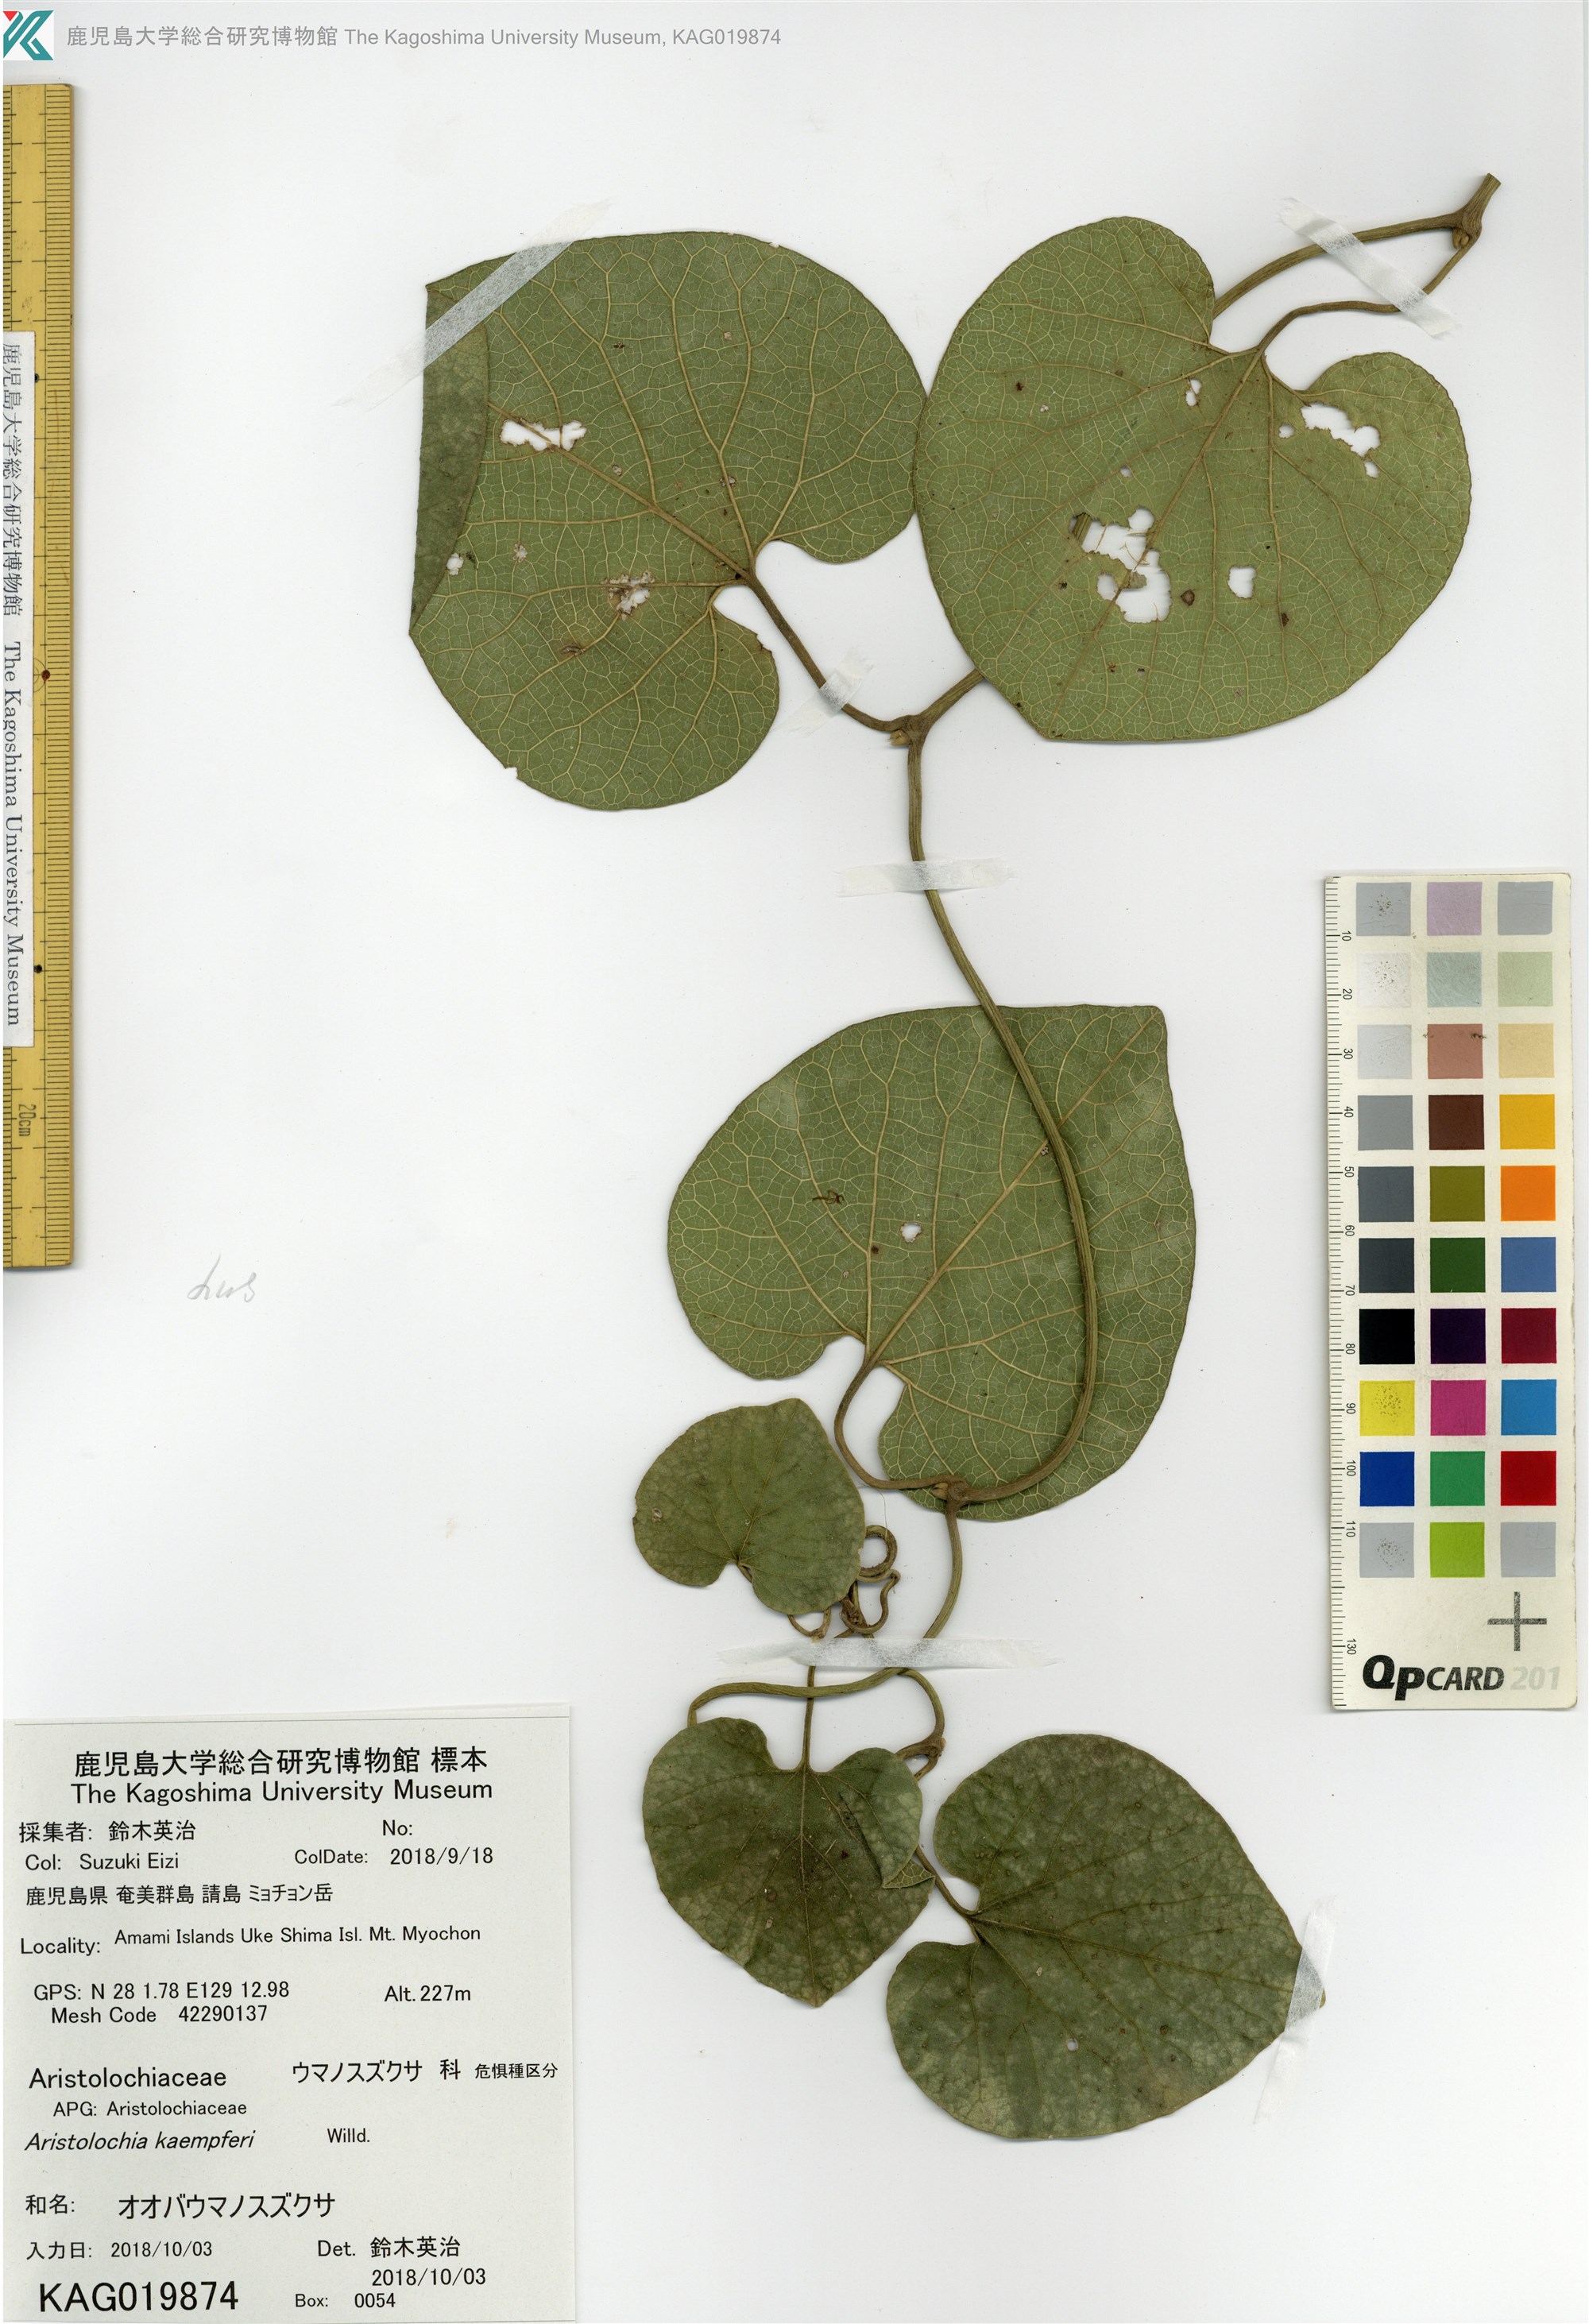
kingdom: Plantae
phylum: Tracheophyta
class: Magnoliopsida
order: Piperales
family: Aristolochiaceae
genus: Isotrema
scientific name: Isotrema liukiuense
